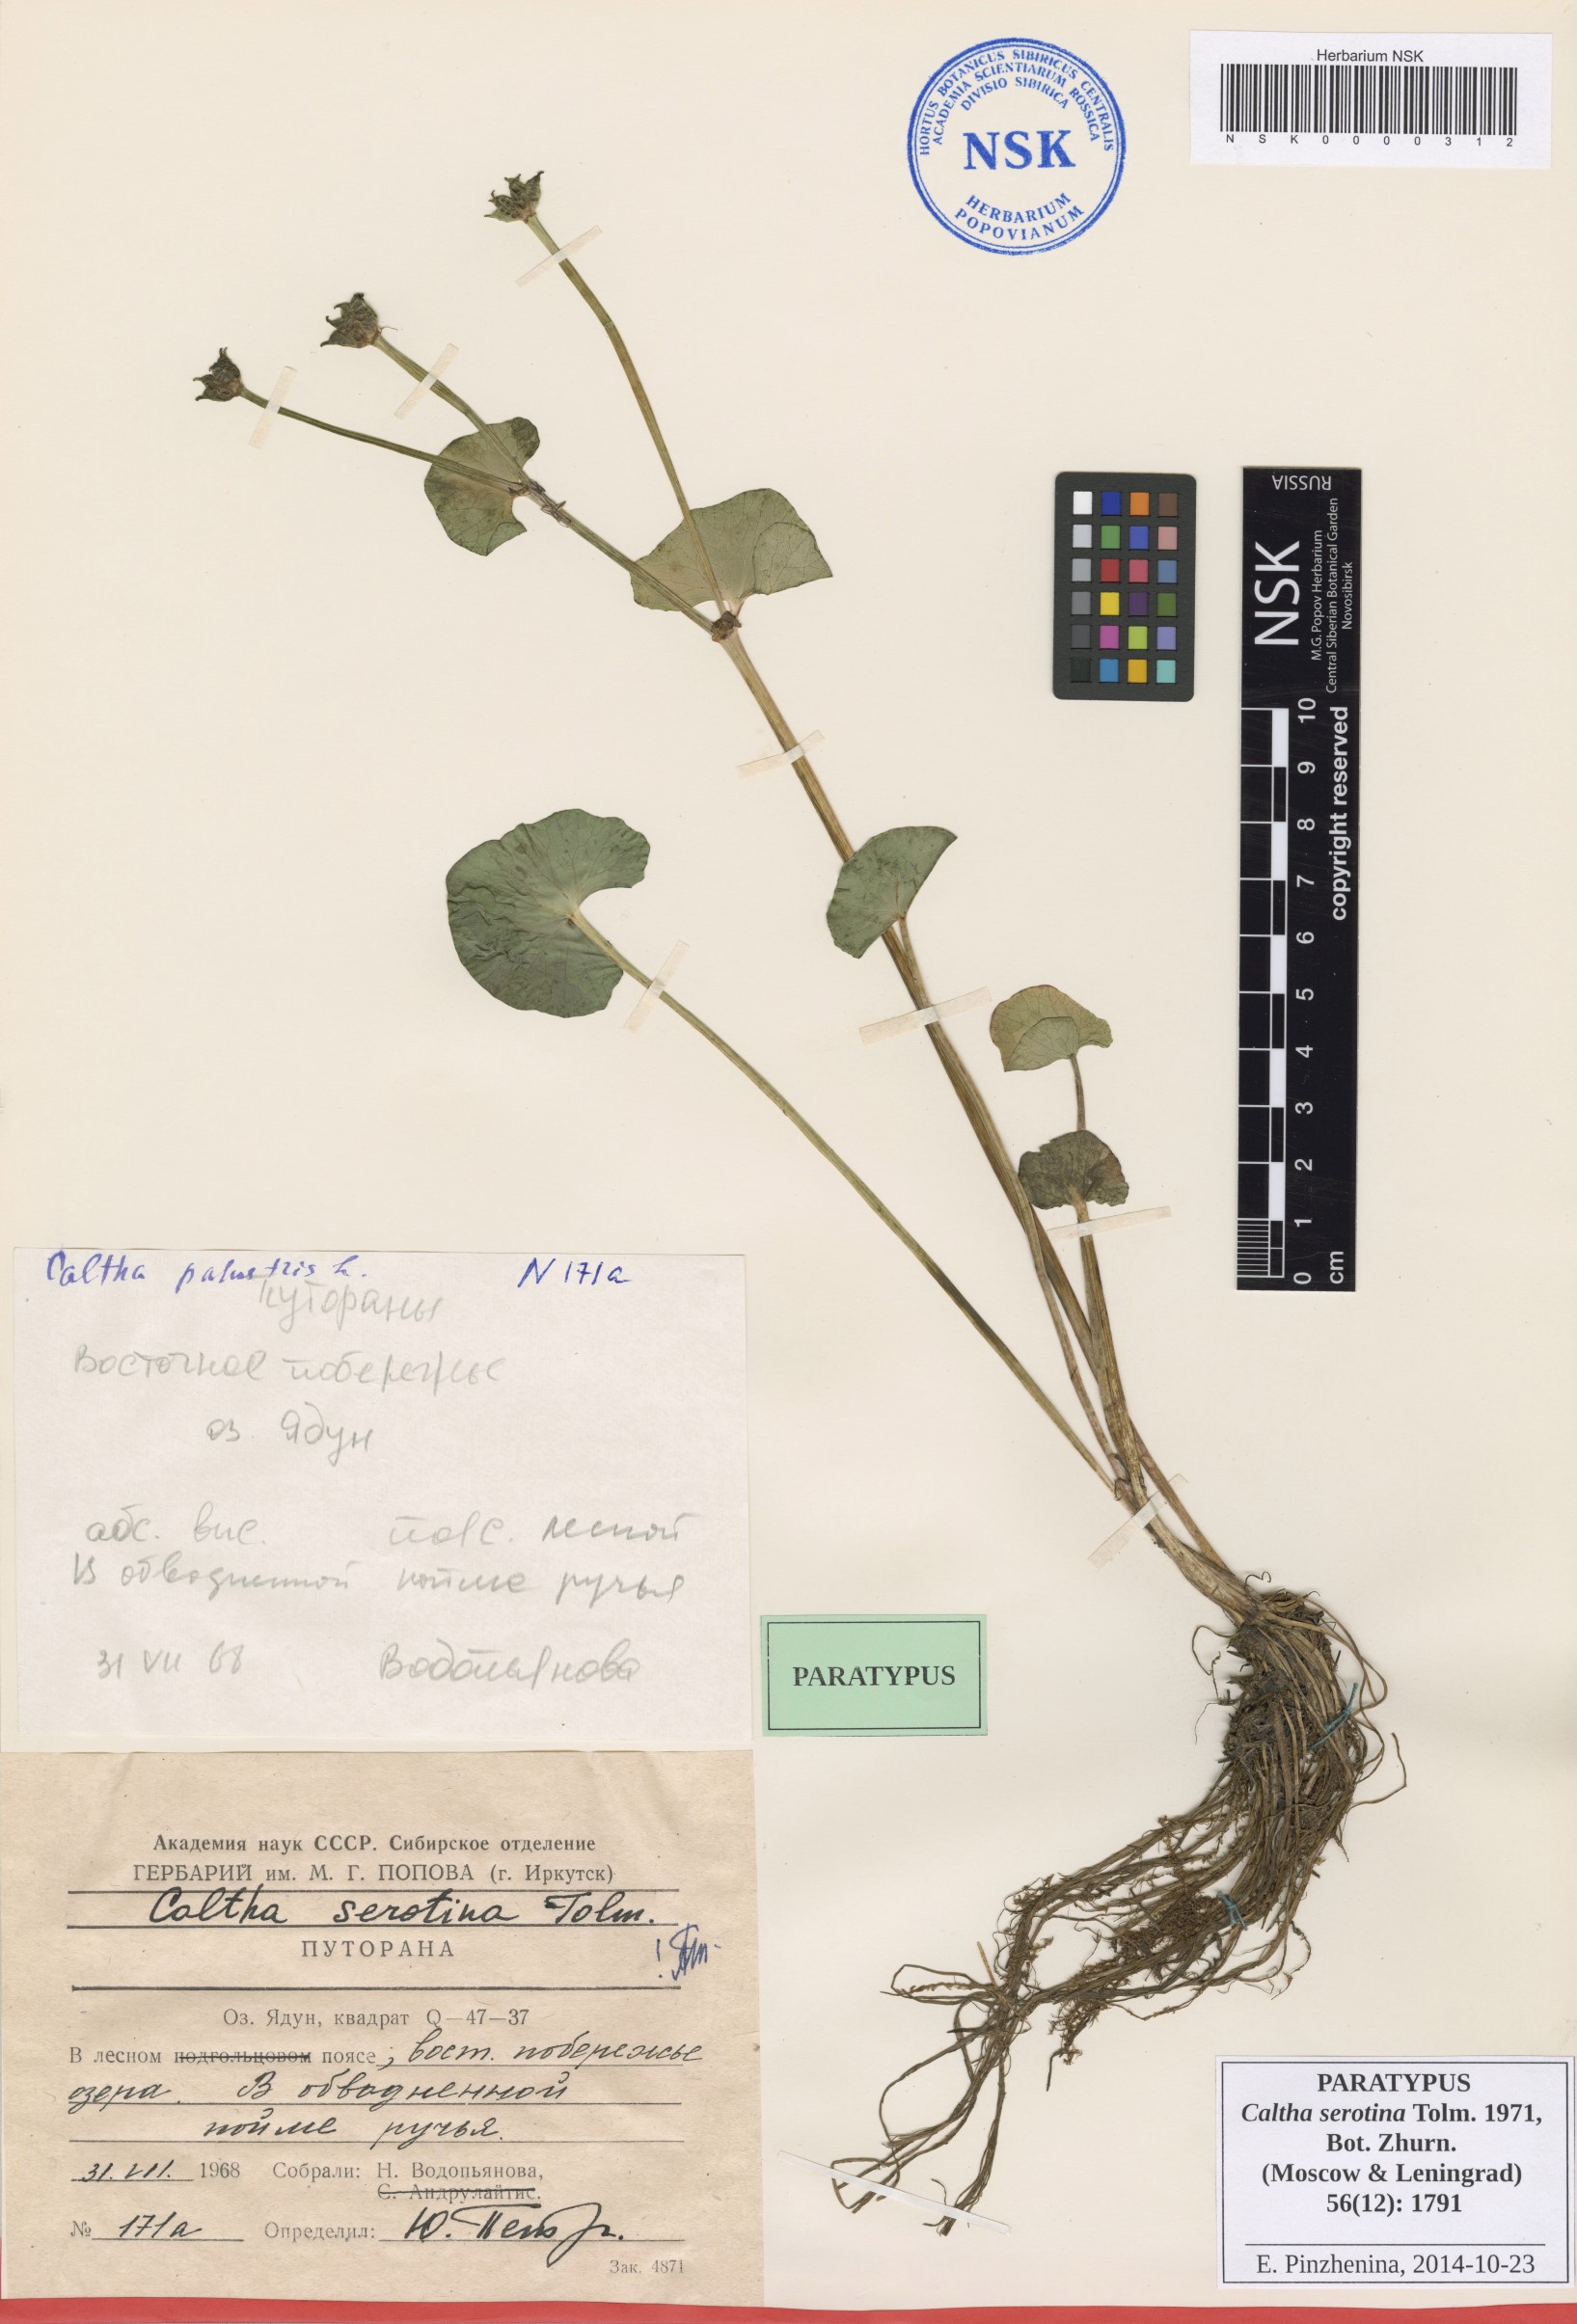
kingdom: Plantae
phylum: Tracheophyta
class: Magnoliopsida
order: Ranunculales
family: Ranunculaceae
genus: Caltha
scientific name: Caltha palustris
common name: Marsh marigold
